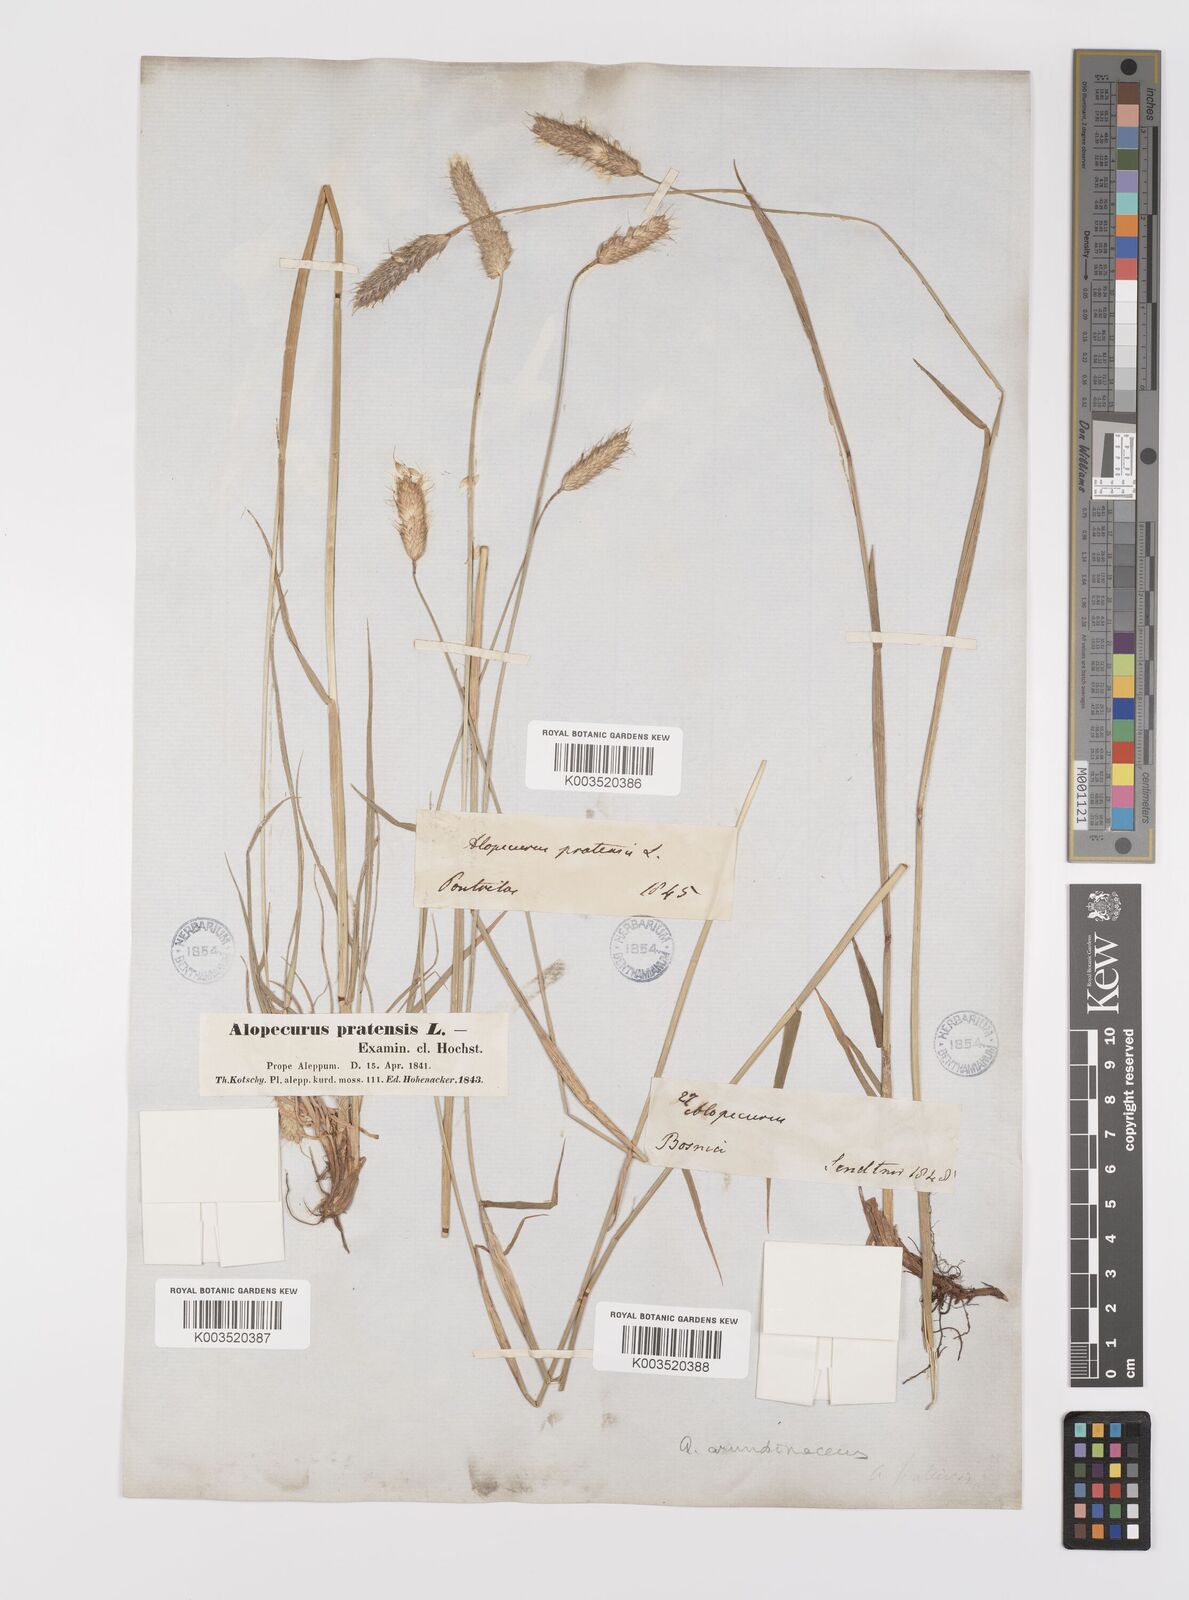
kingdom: Plantae
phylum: Tracheophyta
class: Liliopsida
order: Poales
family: Poaceae
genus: Alopecurus
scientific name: Alopecurus arundinaceus
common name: Creeping meadow foxtail
